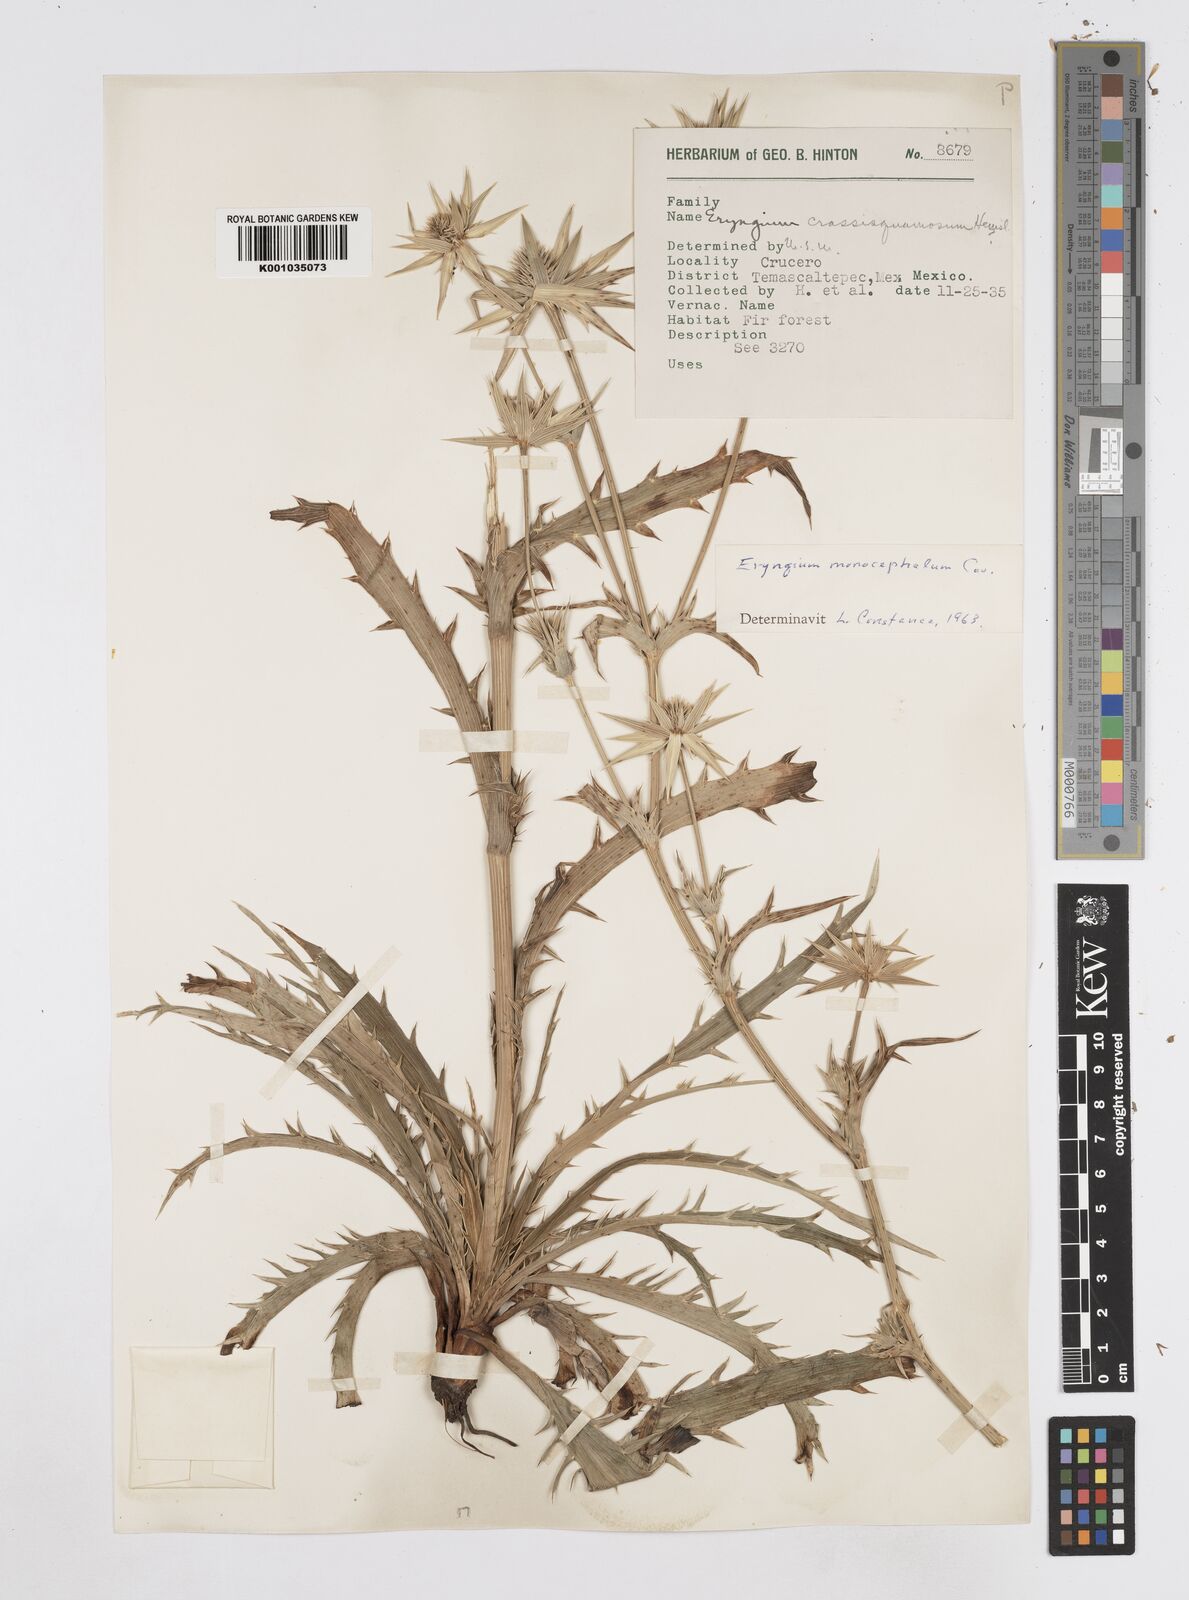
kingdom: Plantae
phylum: Tracheophyta
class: Magnoliopsida
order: Apiales
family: Apiaceae
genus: Eryngium
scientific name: Eryngium monocephalum
